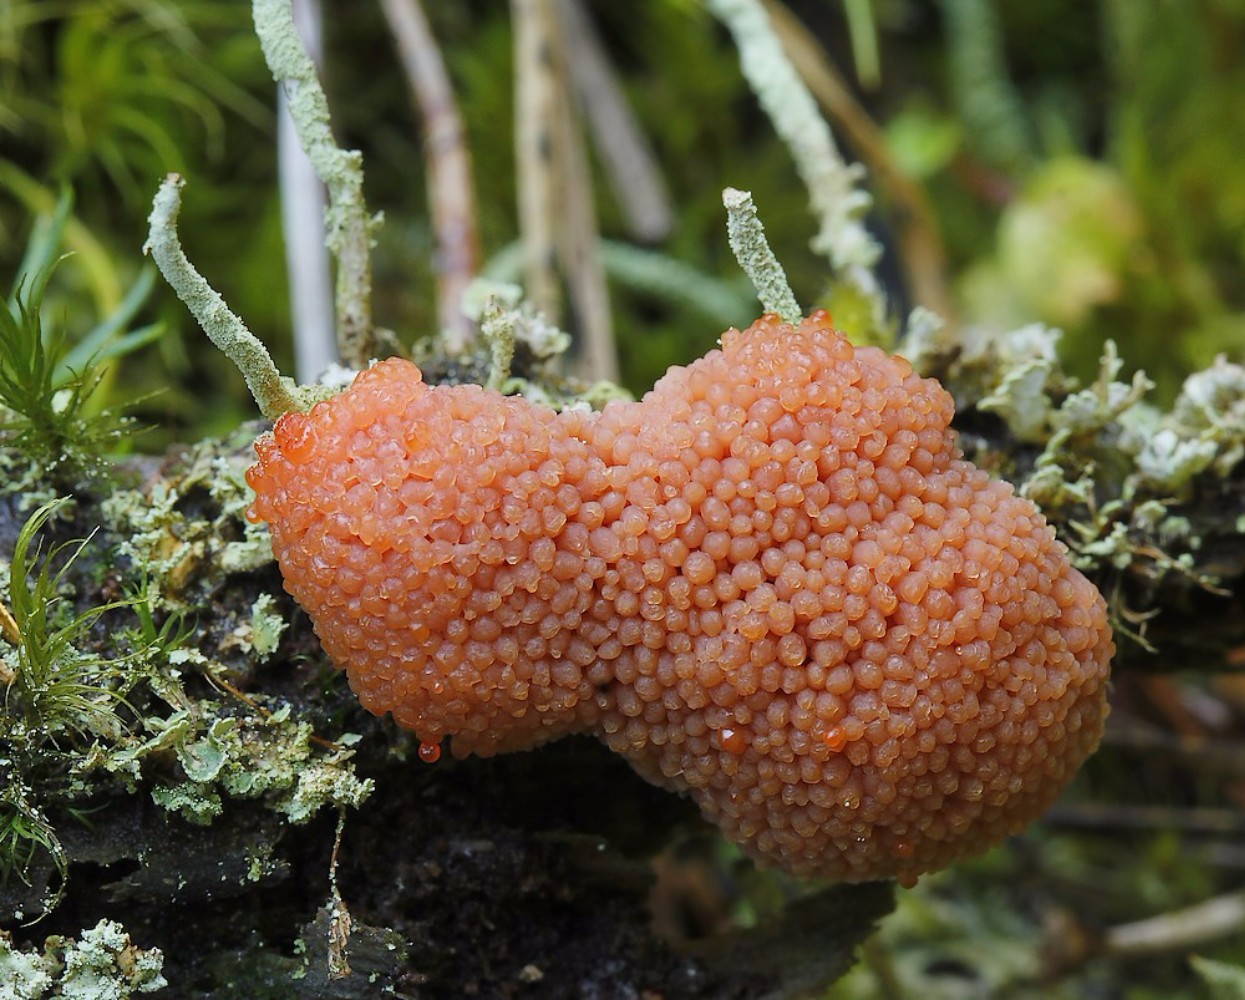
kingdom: Protozoa
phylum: Mycetozoa
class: Myxomycetes
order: Cribrariales
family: Tubiferaceae
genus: Tubifera
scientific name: Tubifera ferruginosa
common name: kanel-støvrør
